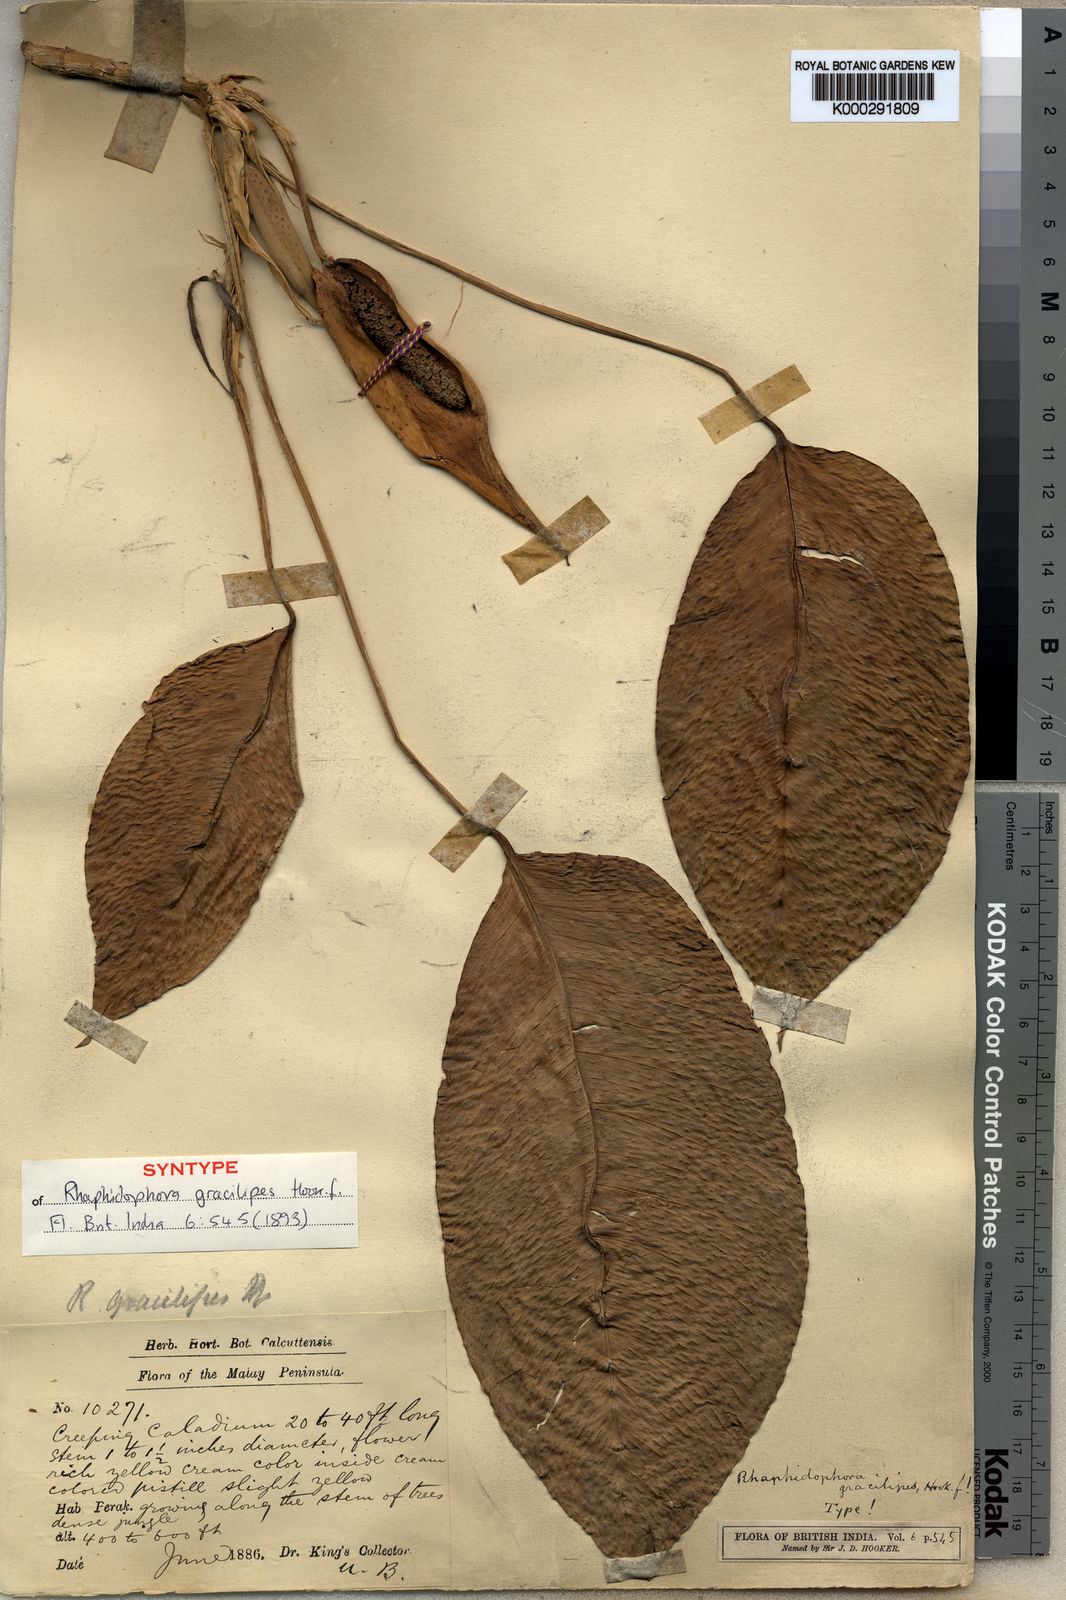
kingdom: Plantae
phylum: Tracheophyta
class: Liliopsida
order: Alismatales
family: Araceae
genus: Rhaphidophora
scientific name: Rhaphidophora puberula
